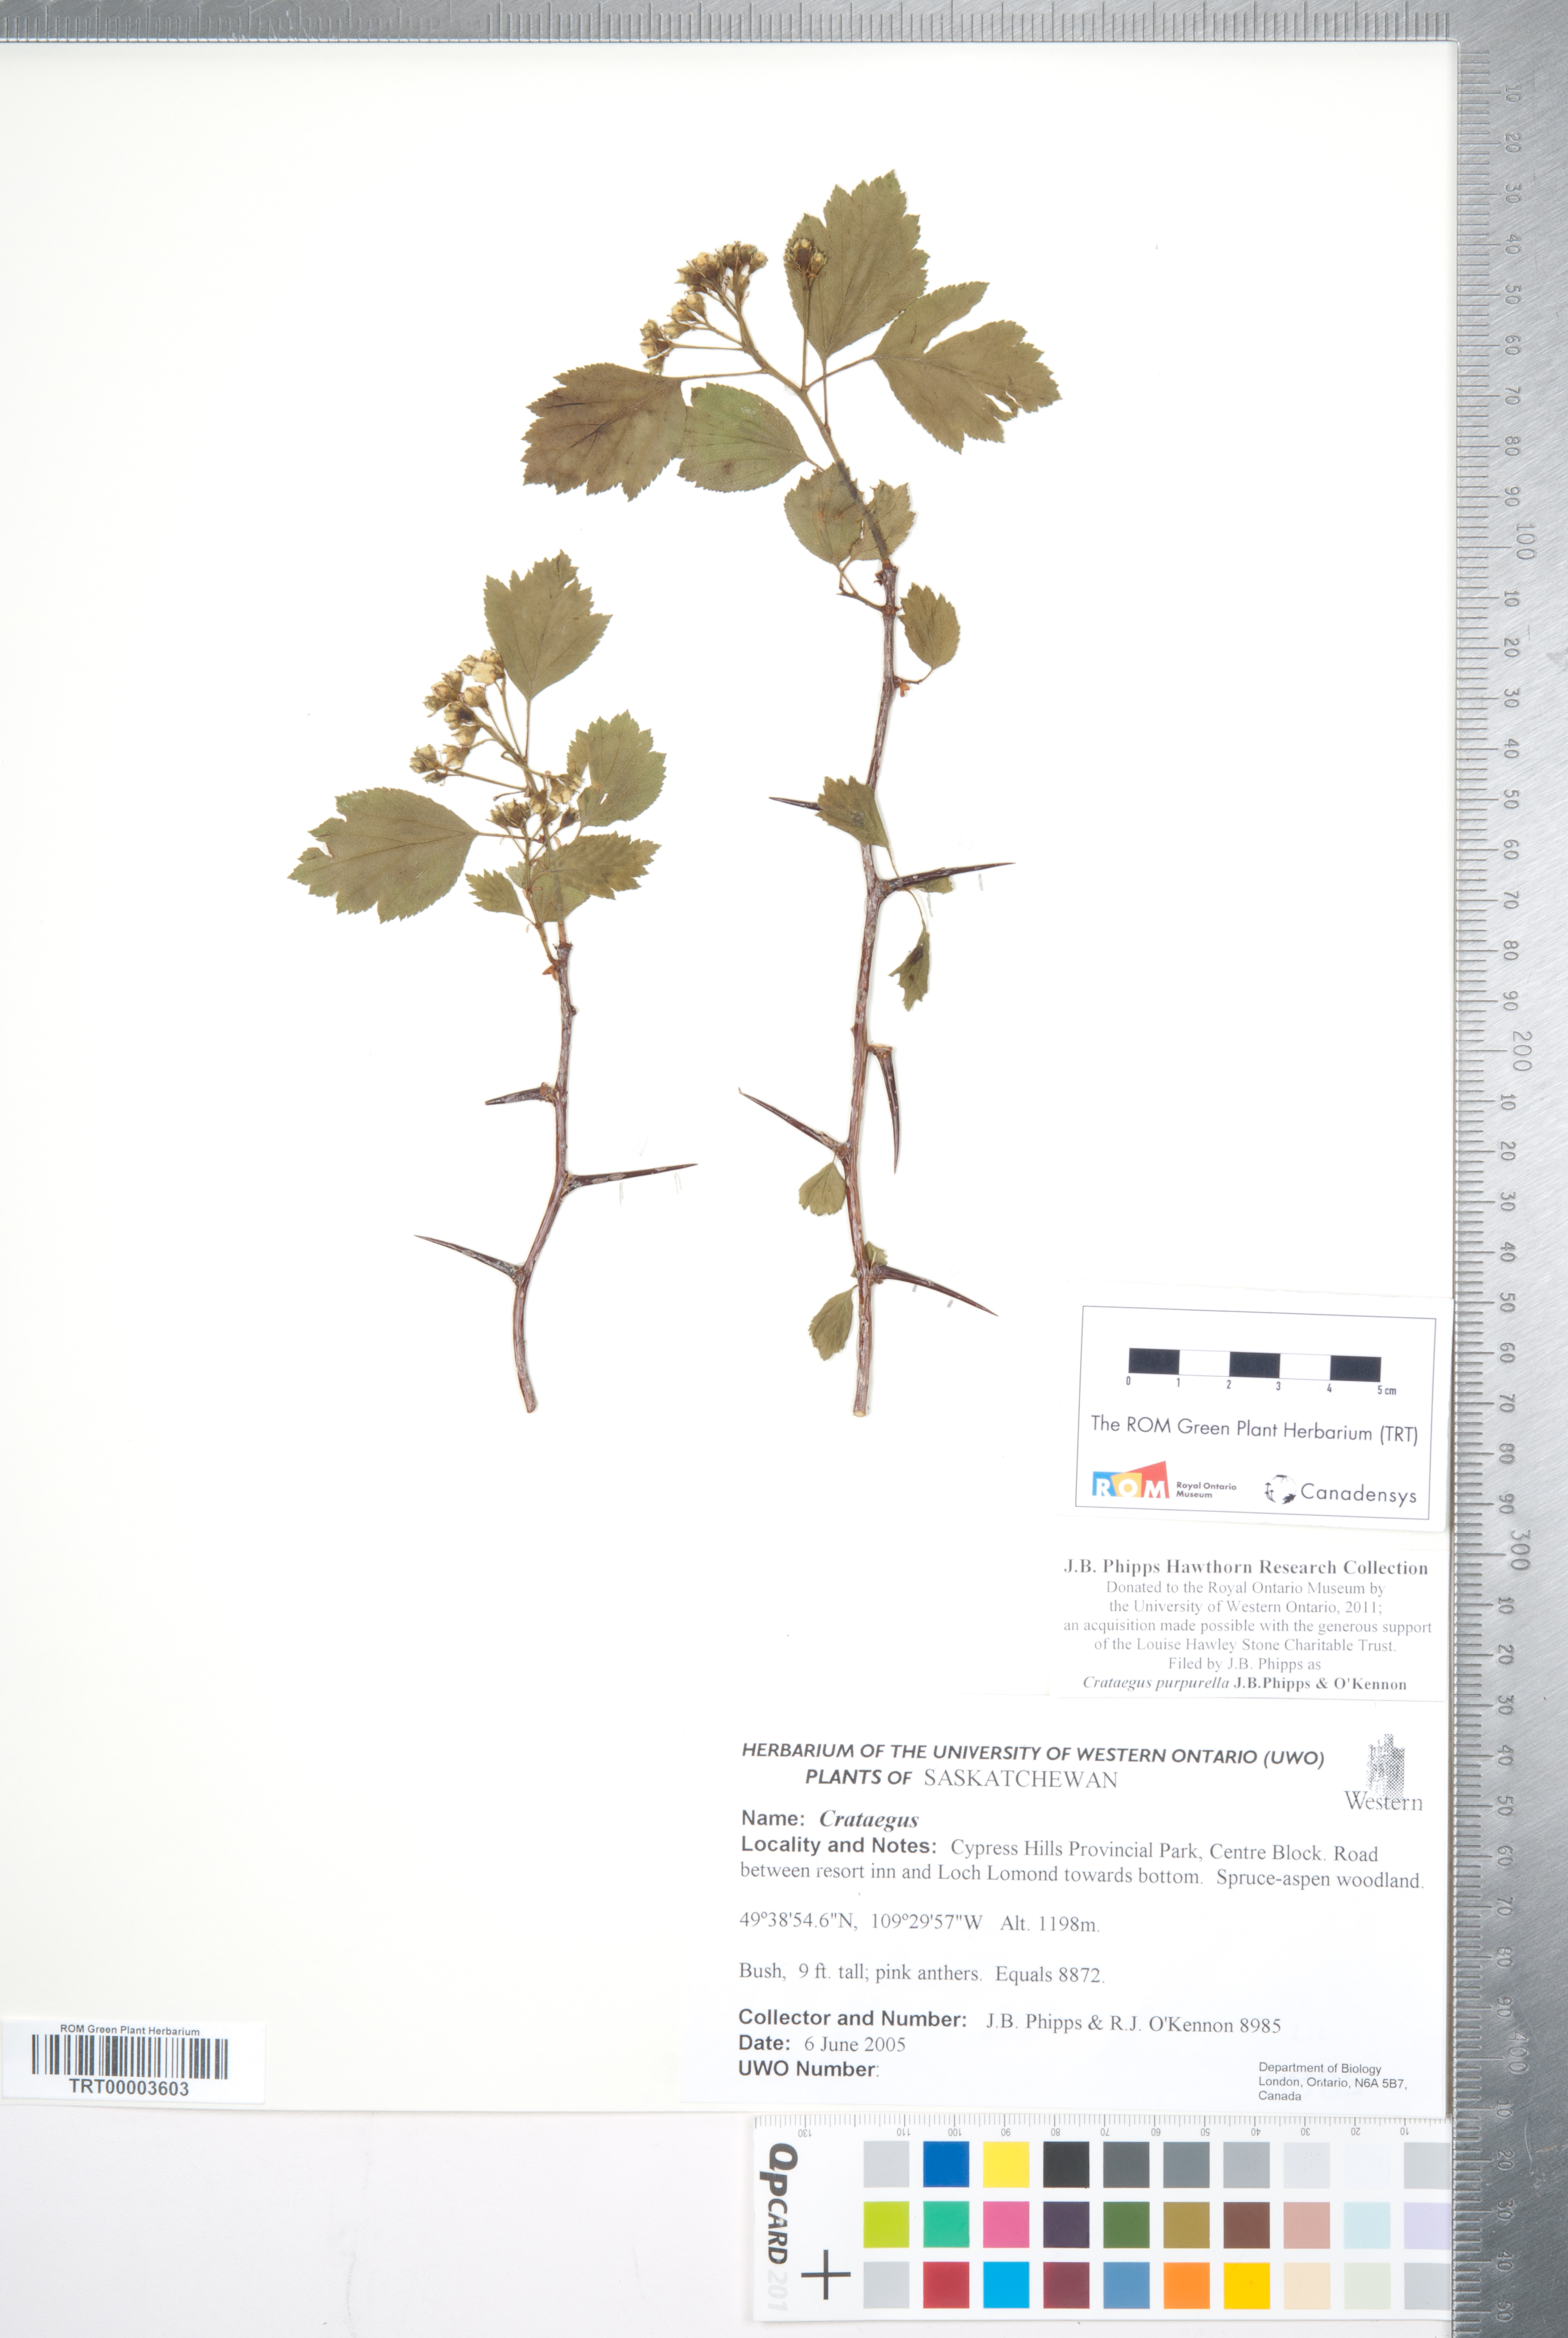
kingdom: Plantae
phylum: Tracheophyta
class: Magnoliopsida
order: Rosales
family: Rosaceae
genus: Crataegus
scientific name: Crataegus purpurella
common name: Loch lomond hawthorn
